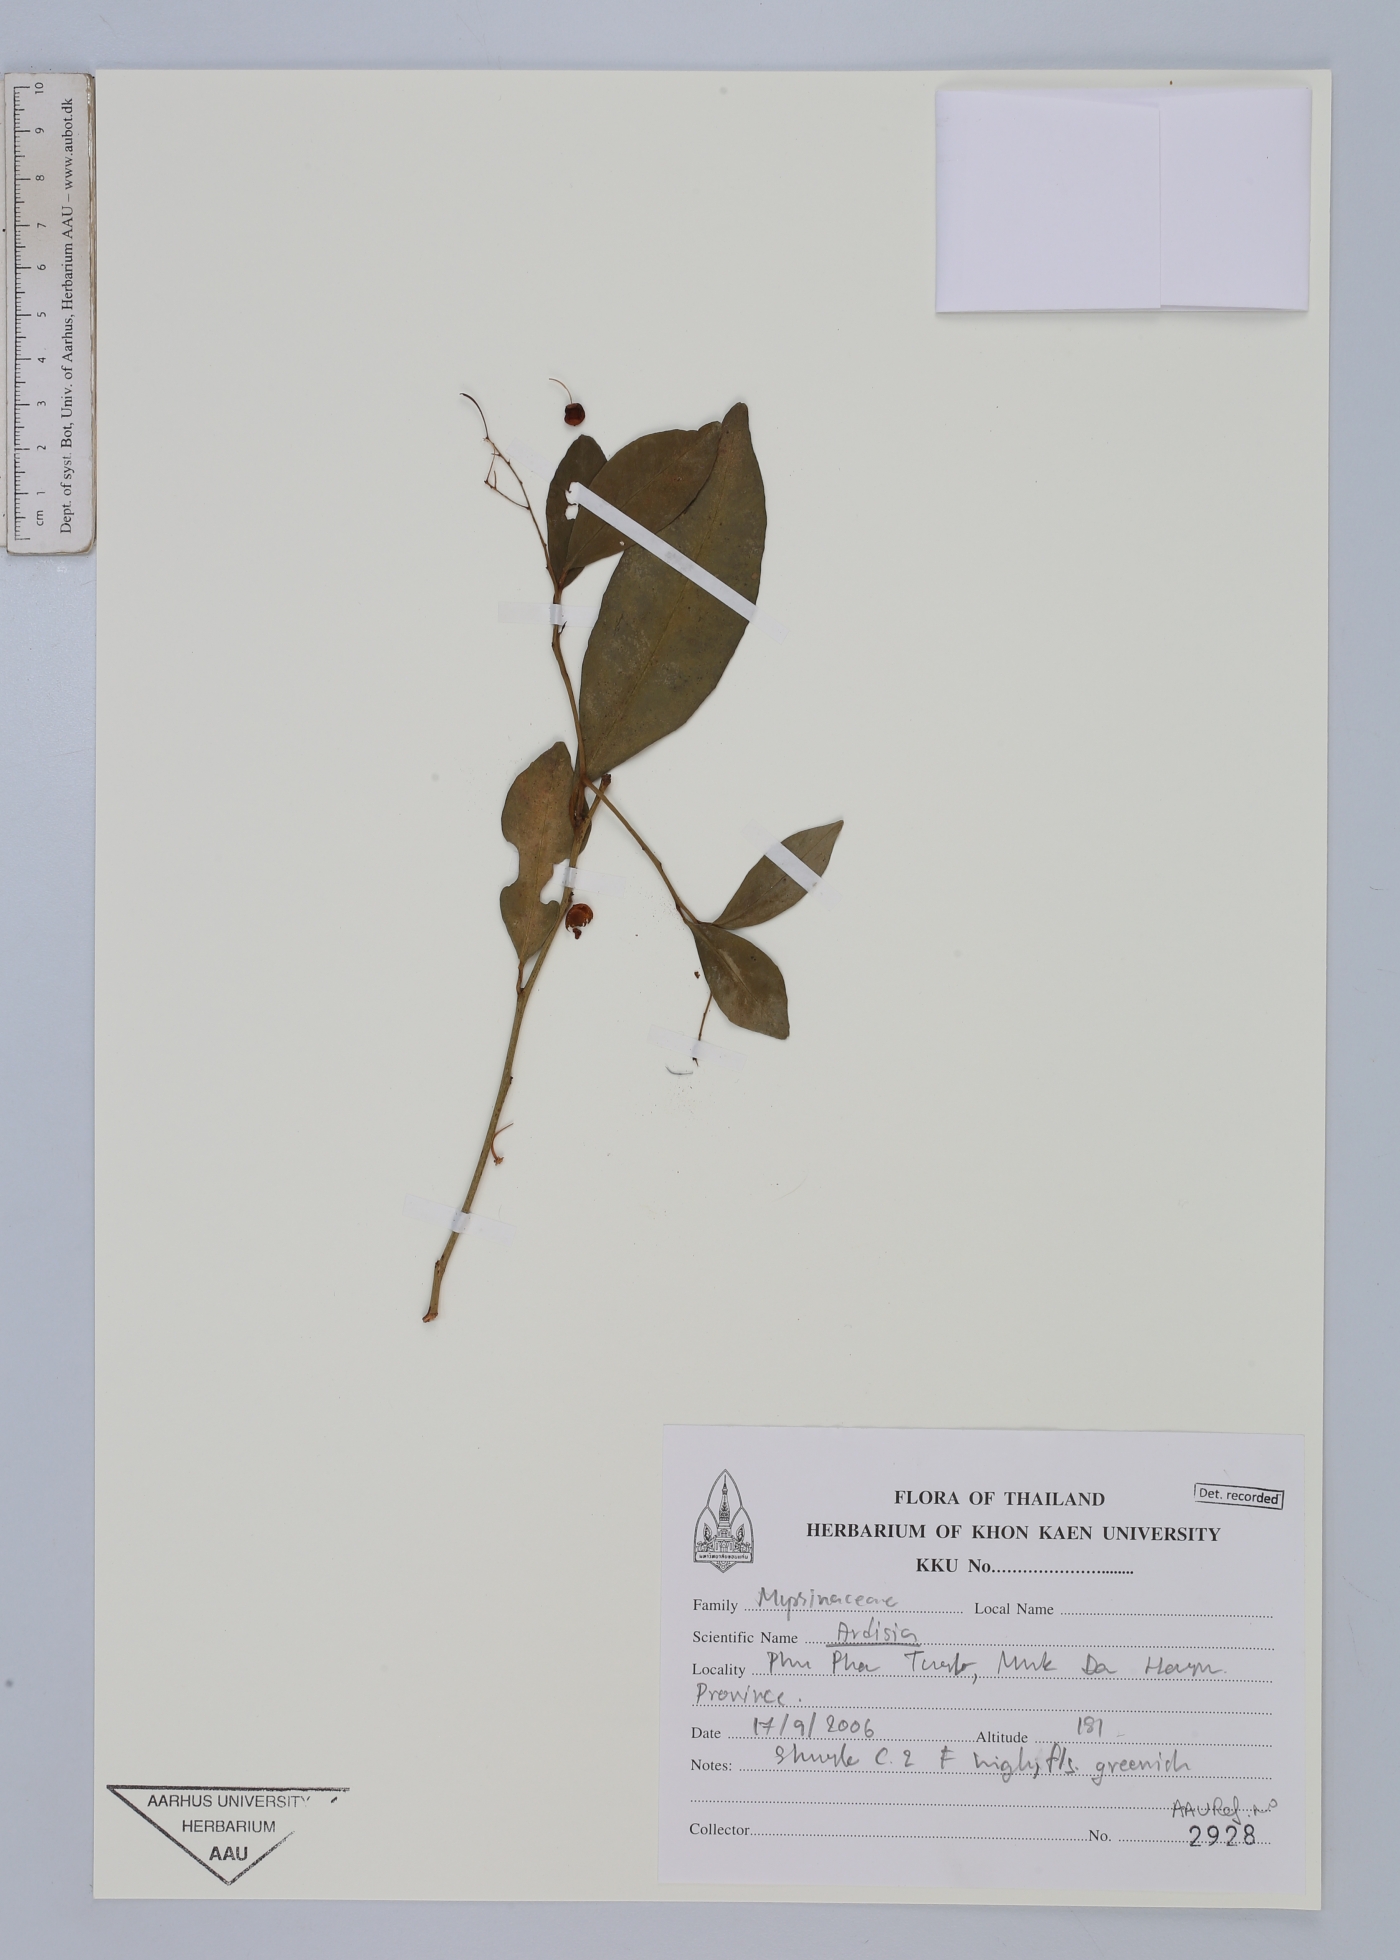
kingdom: Plantae
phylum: Tracheophyta
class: Magnoliopsida
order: Ericales
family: Primulaceae
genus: Ardisia
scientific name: Ardisia
